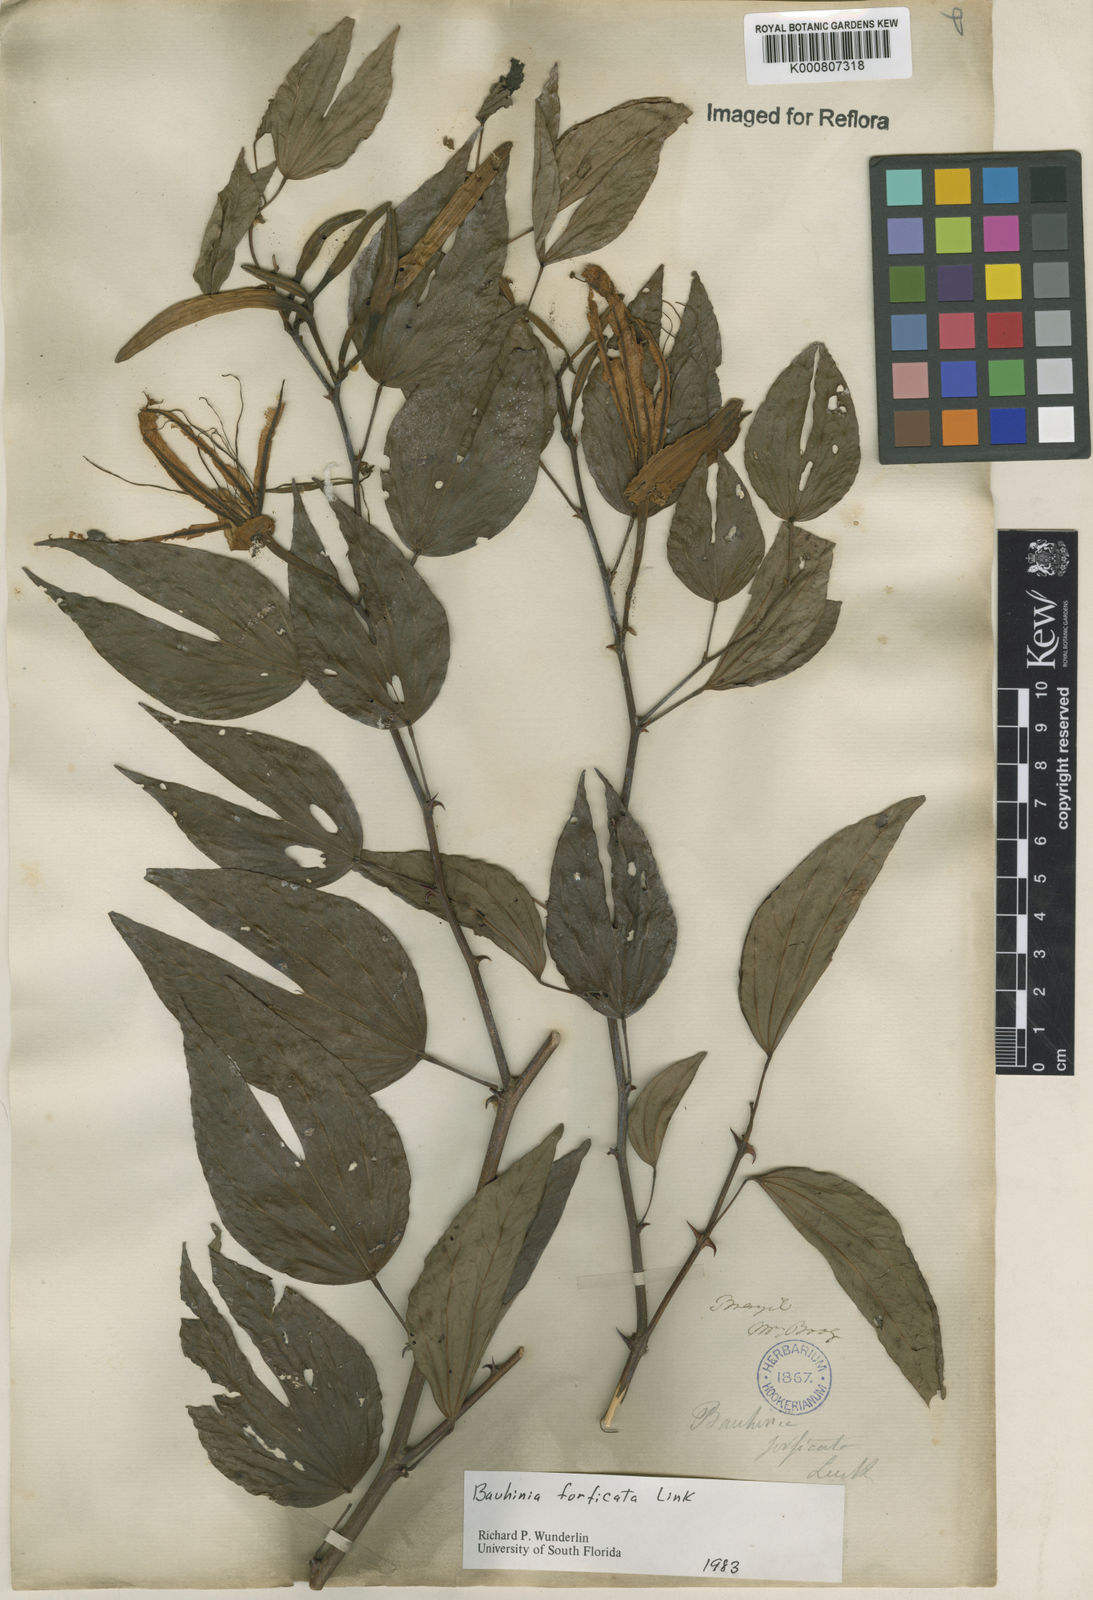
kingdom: Plantae
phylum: Tracheophyta
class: Magnoliopsida
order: Fabales
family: Fabaceae
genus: Bauhinia
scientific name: Bauhinia forficata
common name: Orchid tree
